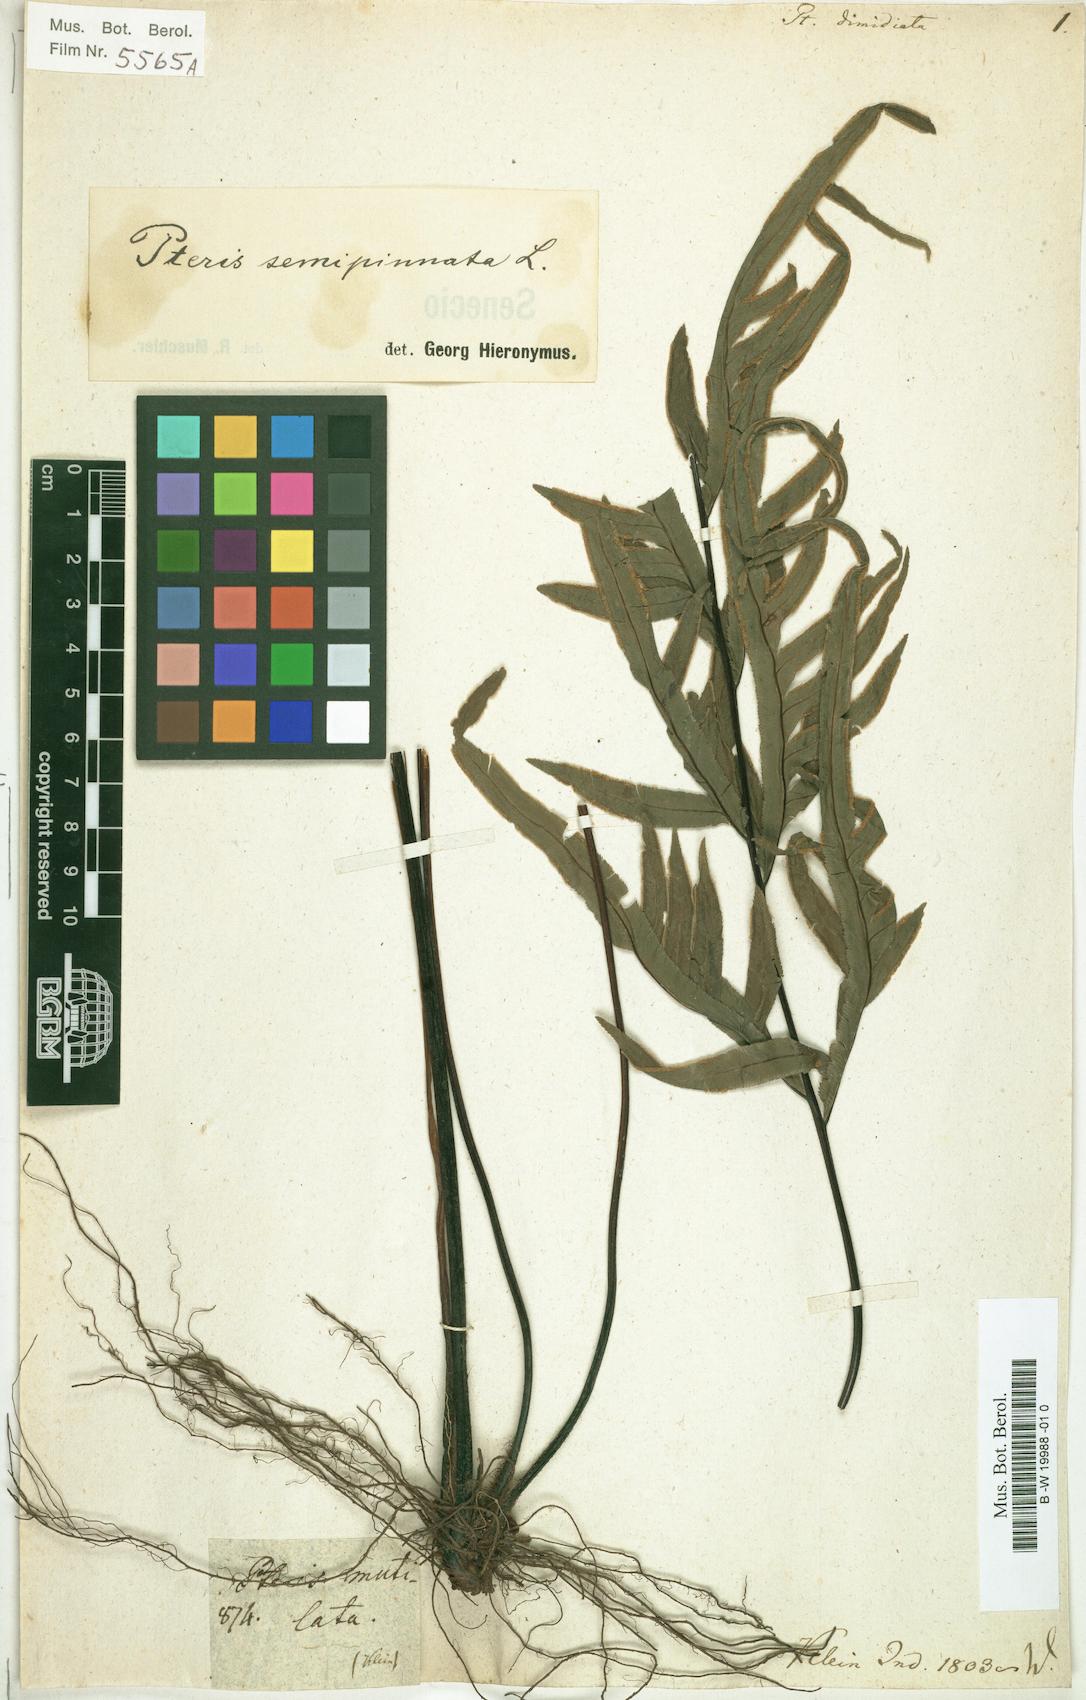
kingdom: Plantae
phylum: Tracheophyta
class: Polypodiopsida
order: Polypodiales
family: Pteridaceae
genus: Pteris
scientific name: Pteris semipinnata
